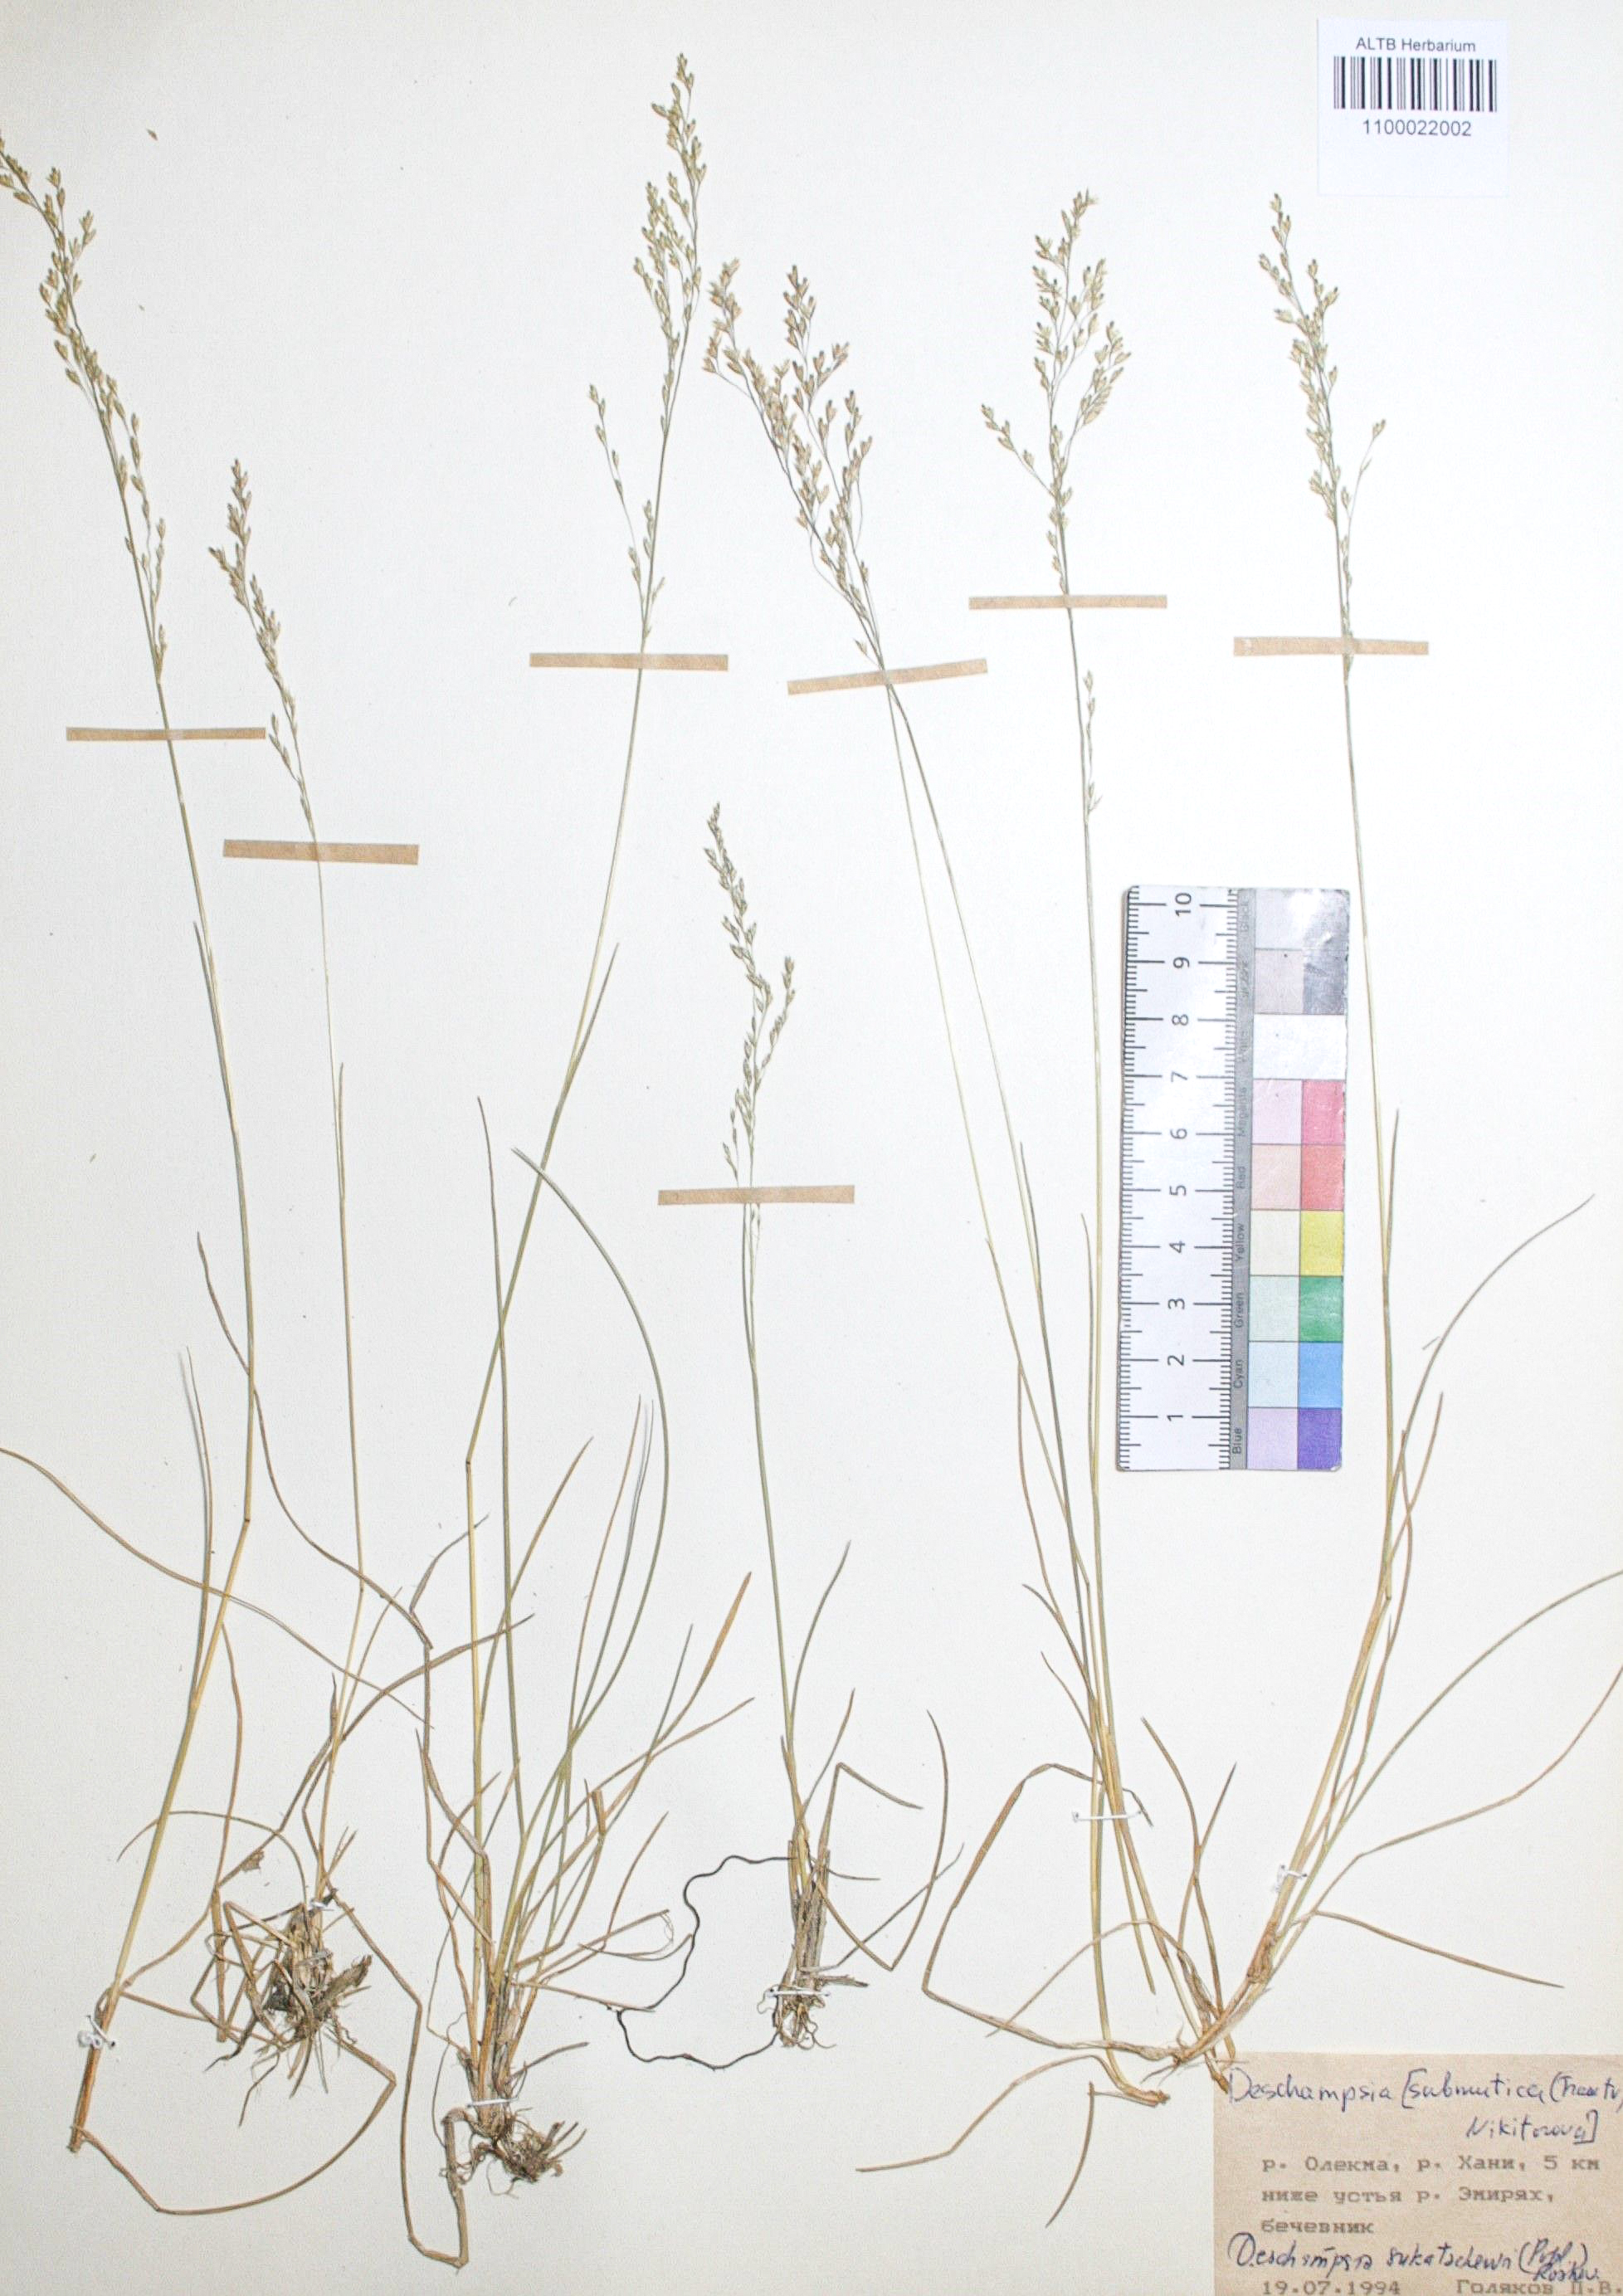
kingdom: Plantae
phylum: Tracheophyta
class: Liliopsida
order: Poales
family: Poaceae
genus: Deschampsia
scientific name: Deschampsia cespitosa
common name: Tufted hair-grass
